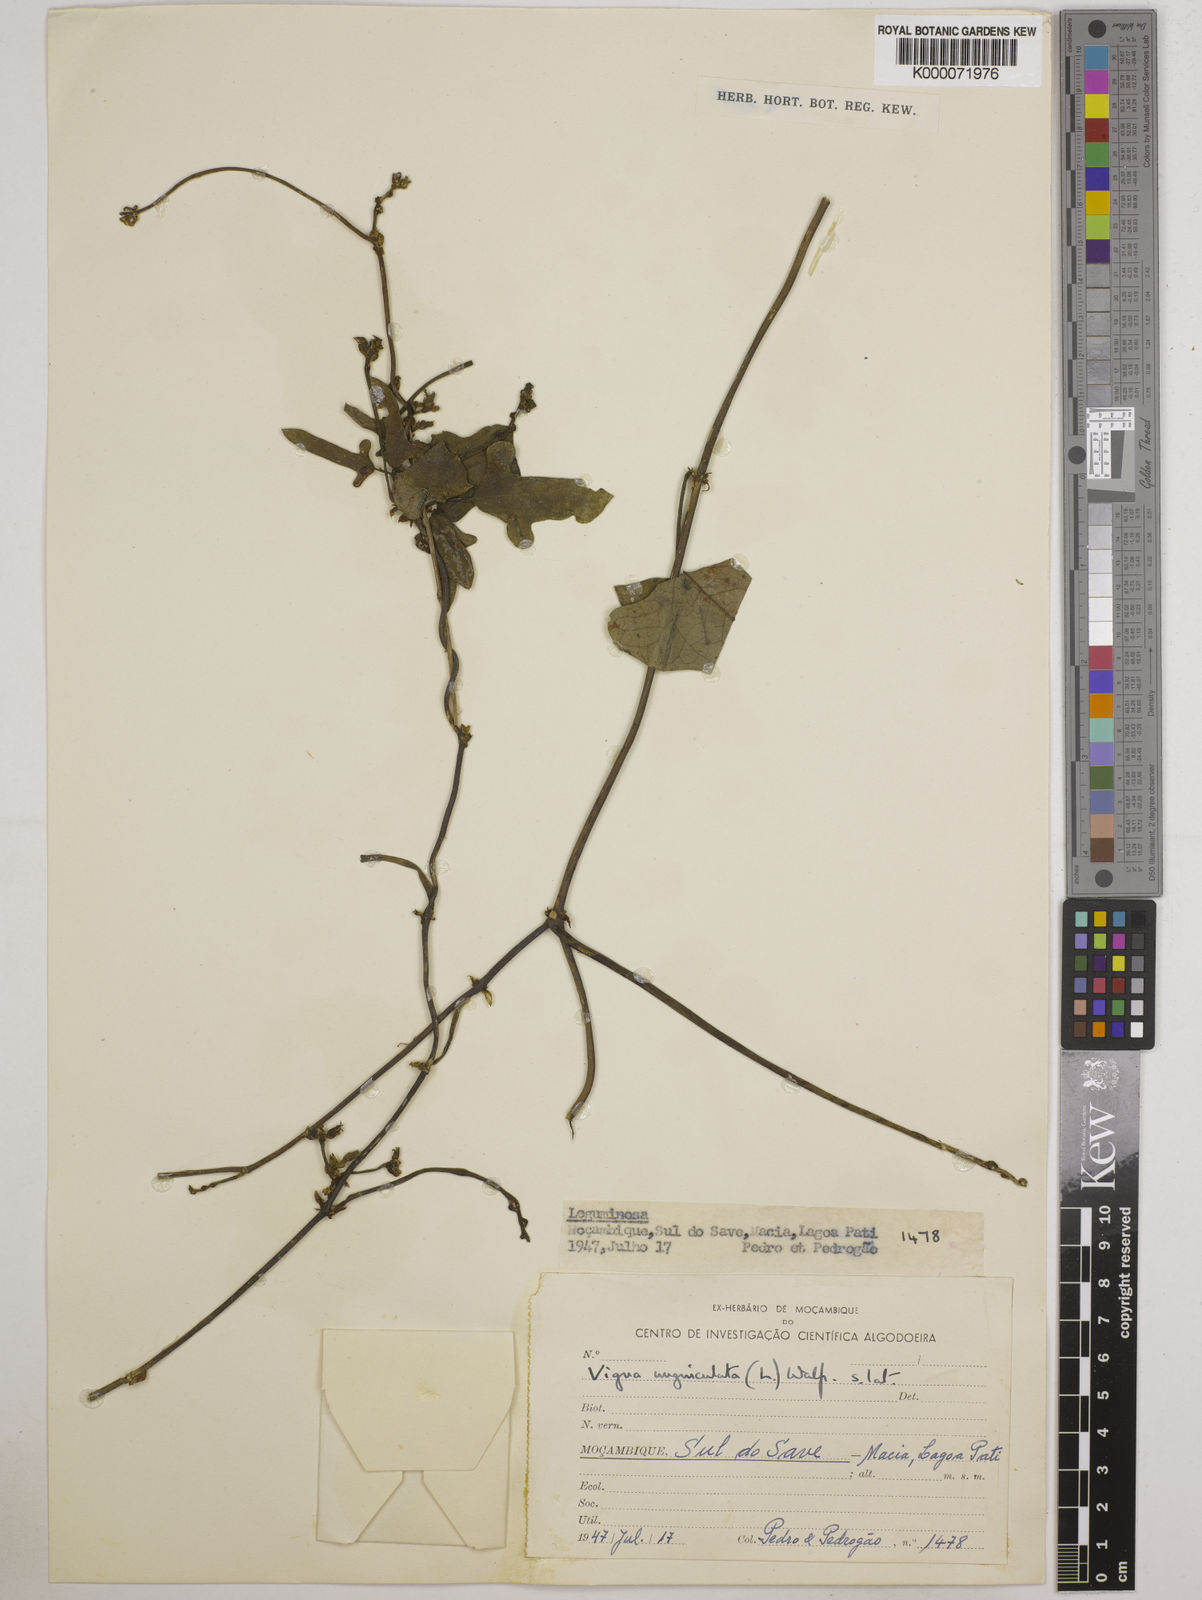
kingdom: Plantae
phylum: Tracheophyta
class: Magnoliopsida
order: Fabales
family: Fabaceae
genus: Vigna
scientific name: Vigna unguiculata
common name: Cowpea
